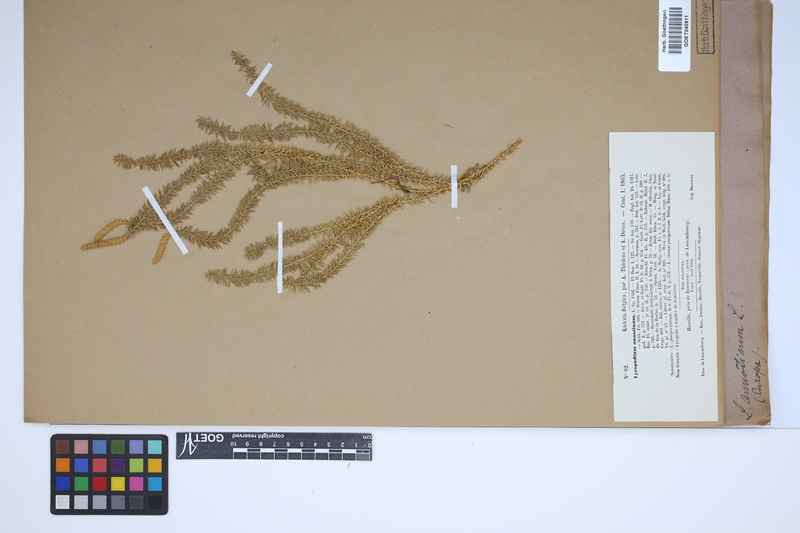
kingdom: Plantae
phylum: Tracheophyta
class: Lycopodiopsida
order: Lycopodiales
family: Lycopodiaceae
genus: Spinulum
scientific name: Spinulum annotinum
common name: Interrupted club-moss
